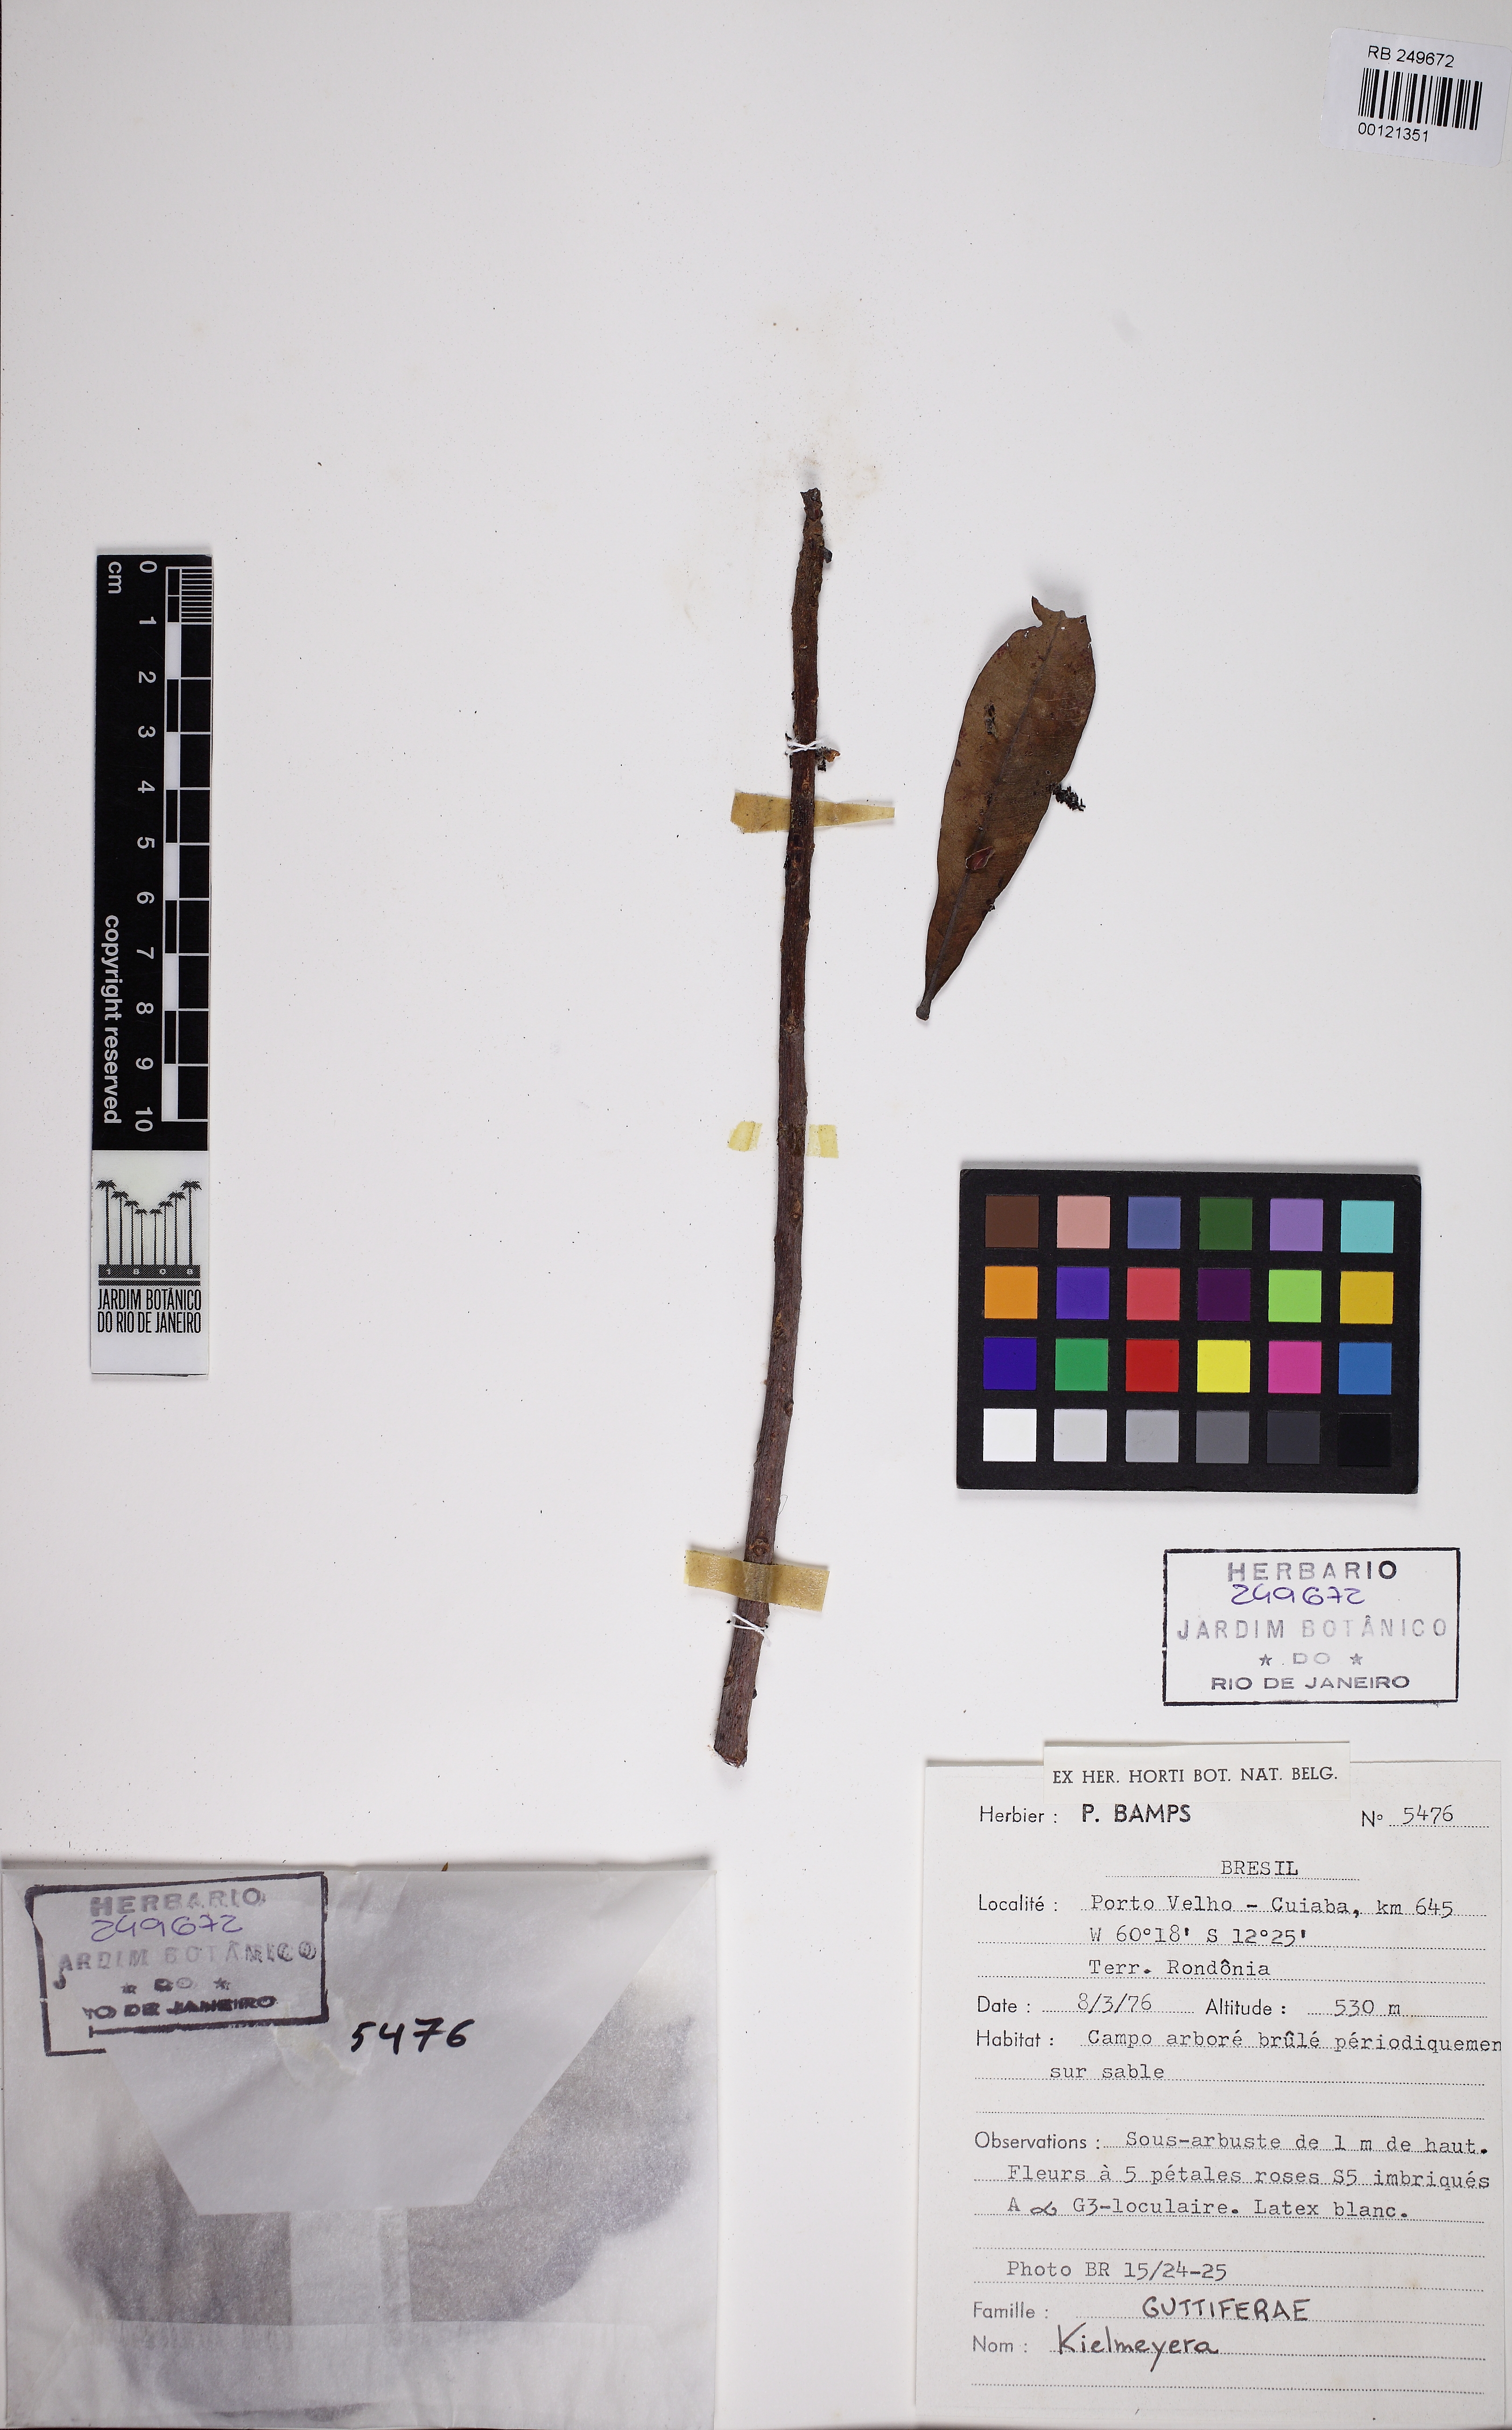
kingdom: Plantae
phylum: Tracheophyta
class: Magnoliopsida
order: Malpighiales
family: Calophyllaceae
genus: Kielmeyera
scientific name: Kielmeyera
